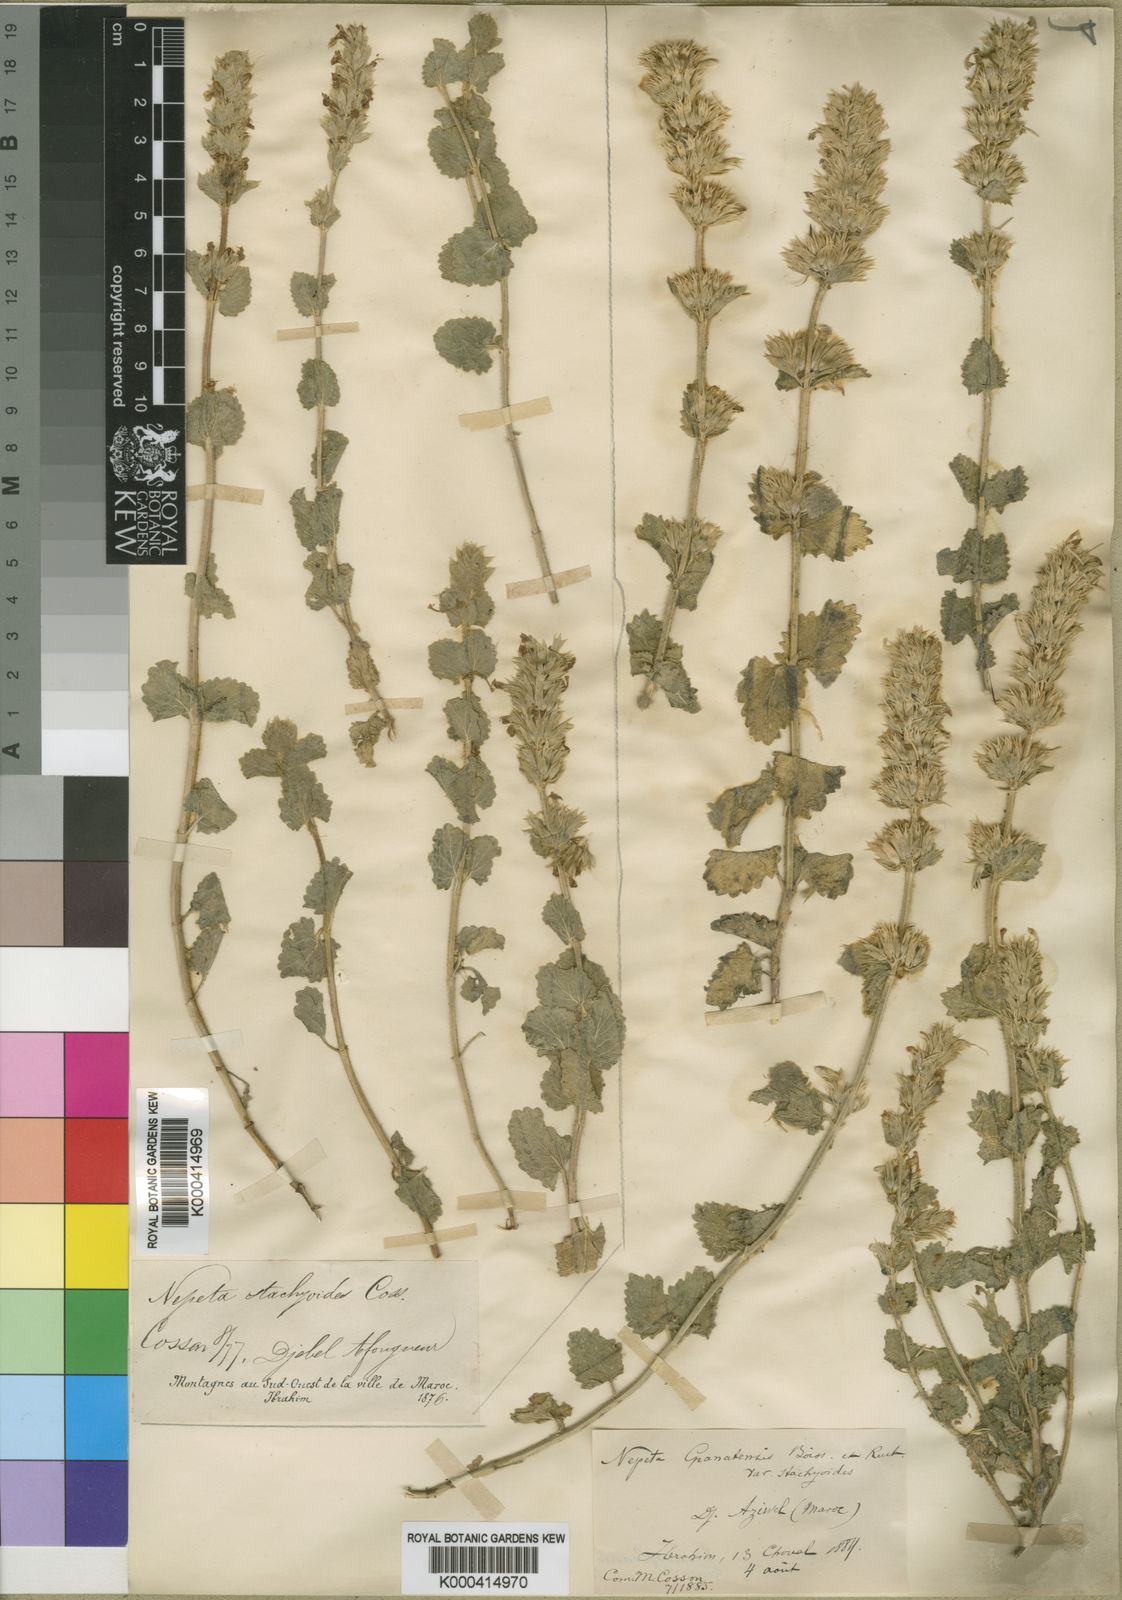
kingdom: Plantae
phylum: Tracheophyta
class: Magnoliopsida
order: Lamiales
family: Lamiaceae
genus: Nepeta
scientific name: Nepeta
